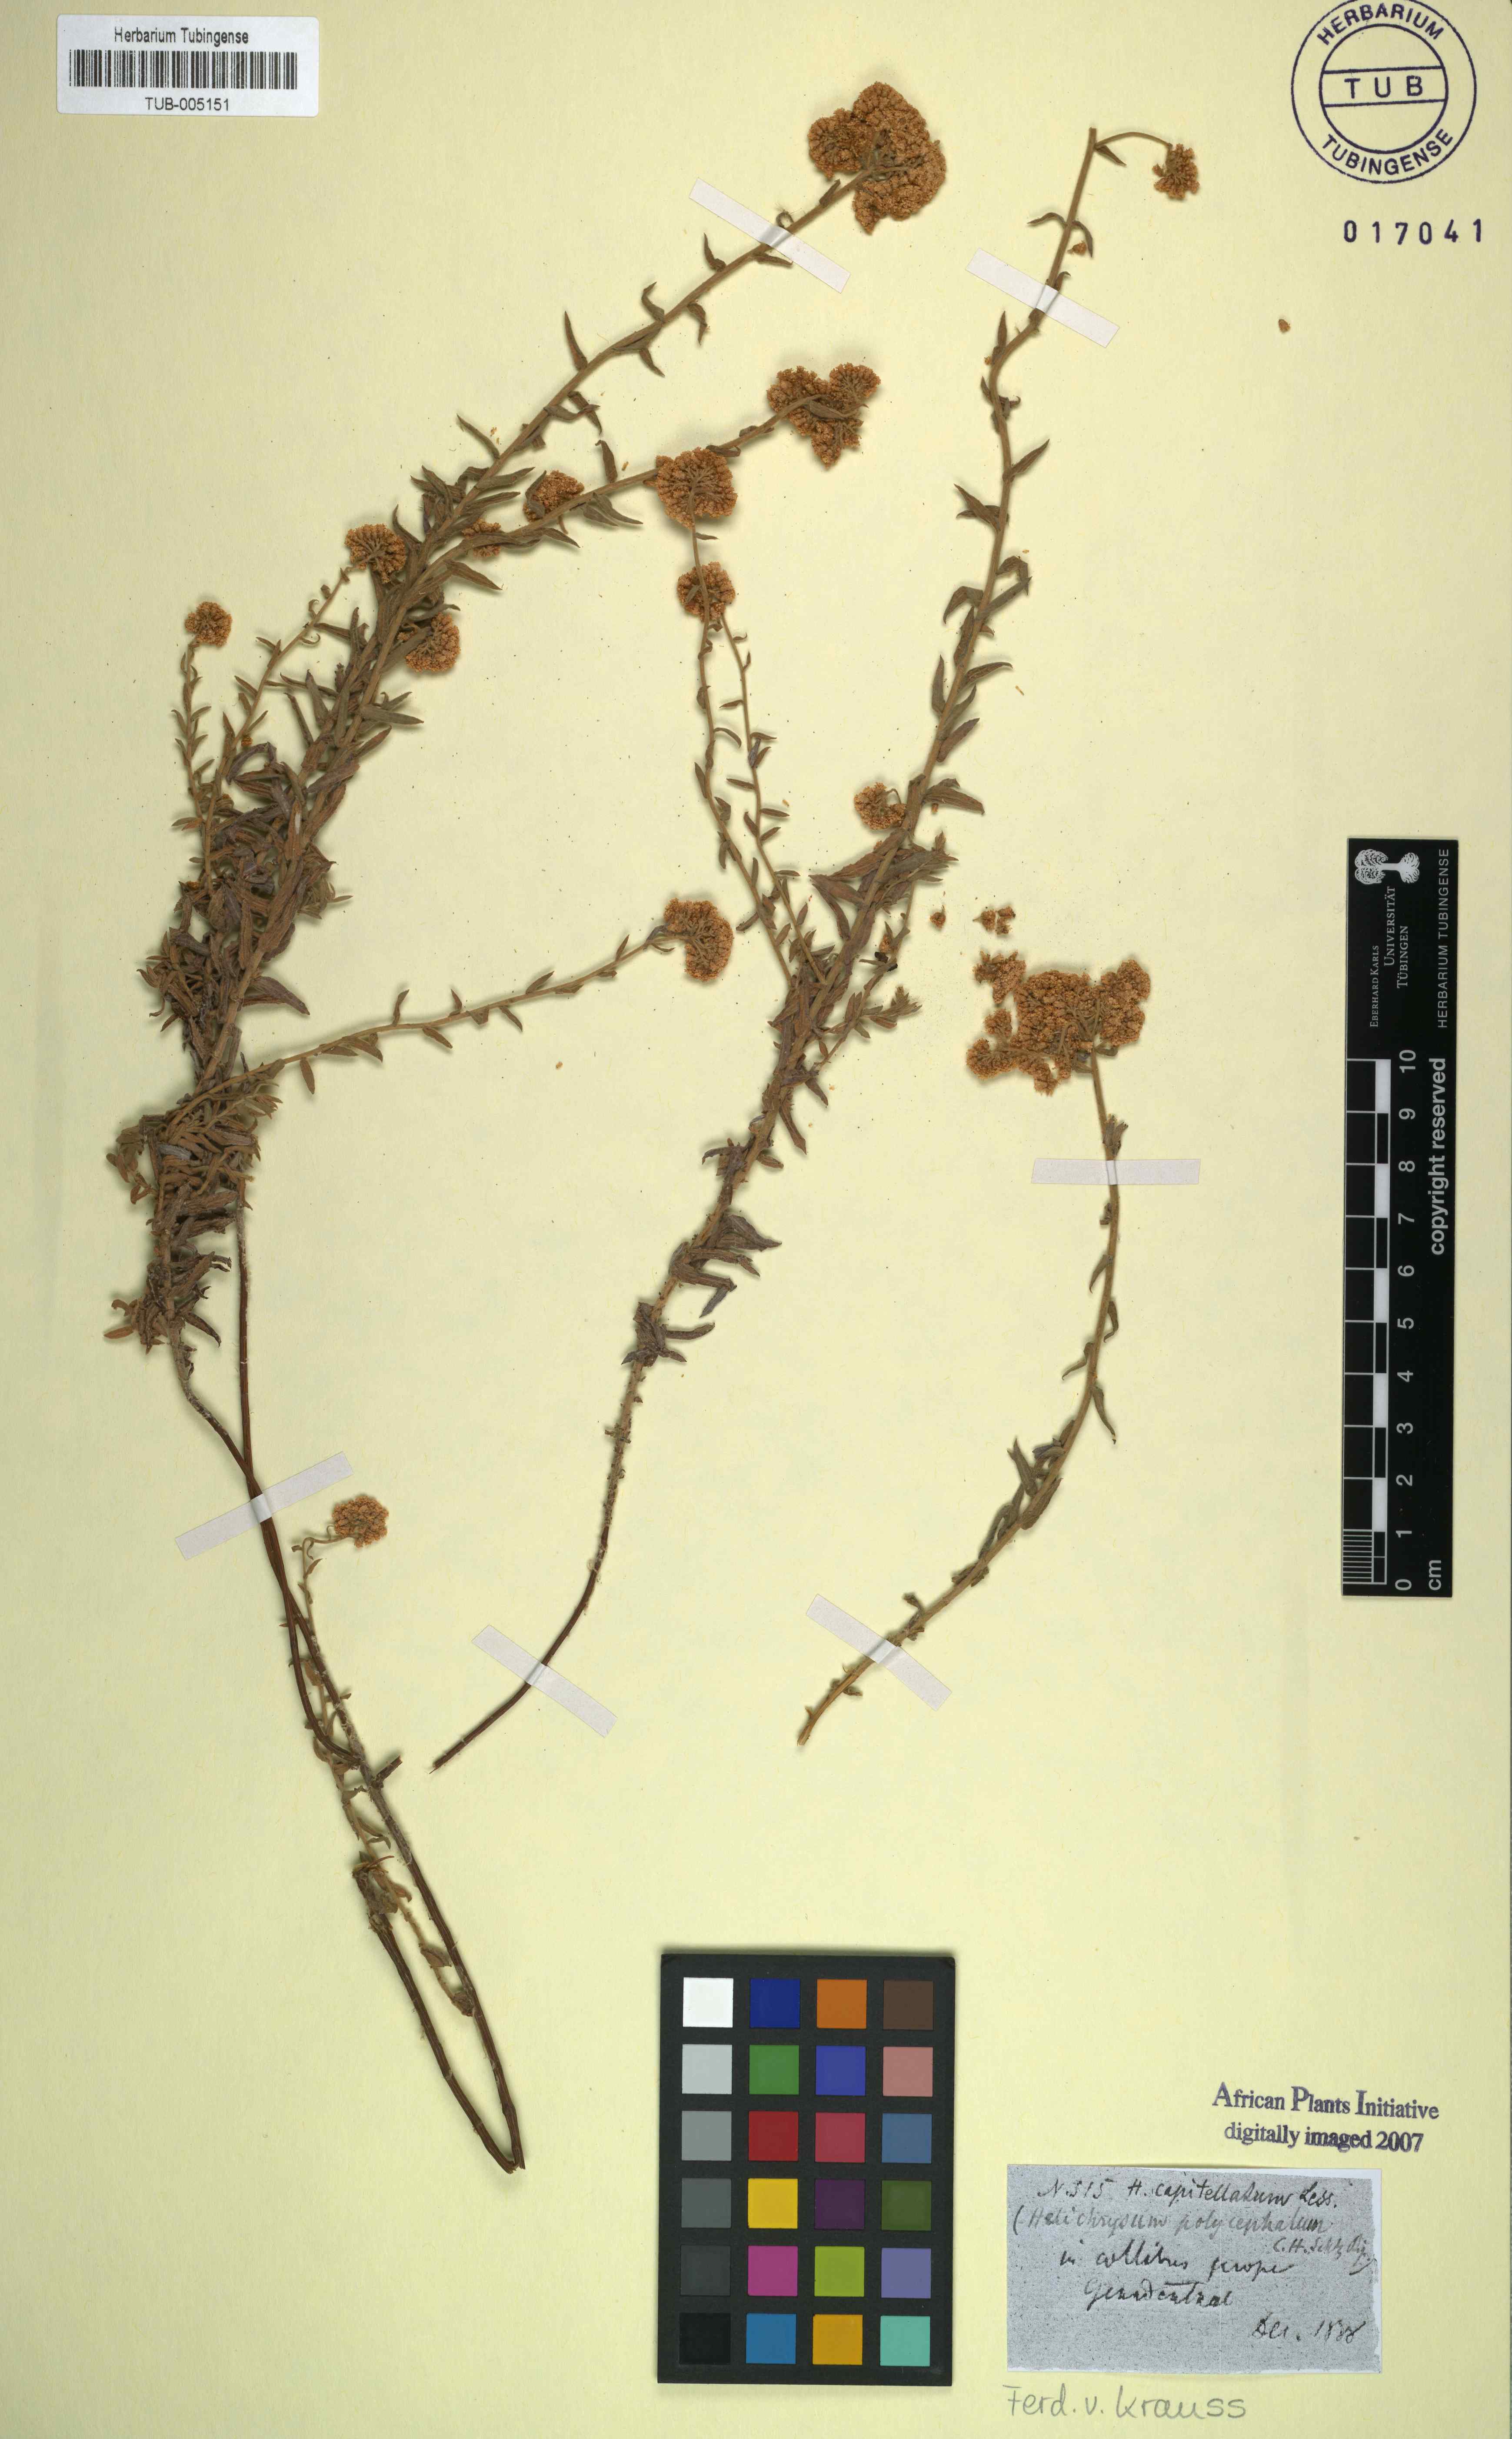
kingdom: Plantae
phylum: Tracheophyta
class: Magnoliopsida
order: Asterales
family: Asteraceae
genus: Helichrysum
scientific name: Helichrysum helianthemifolium
